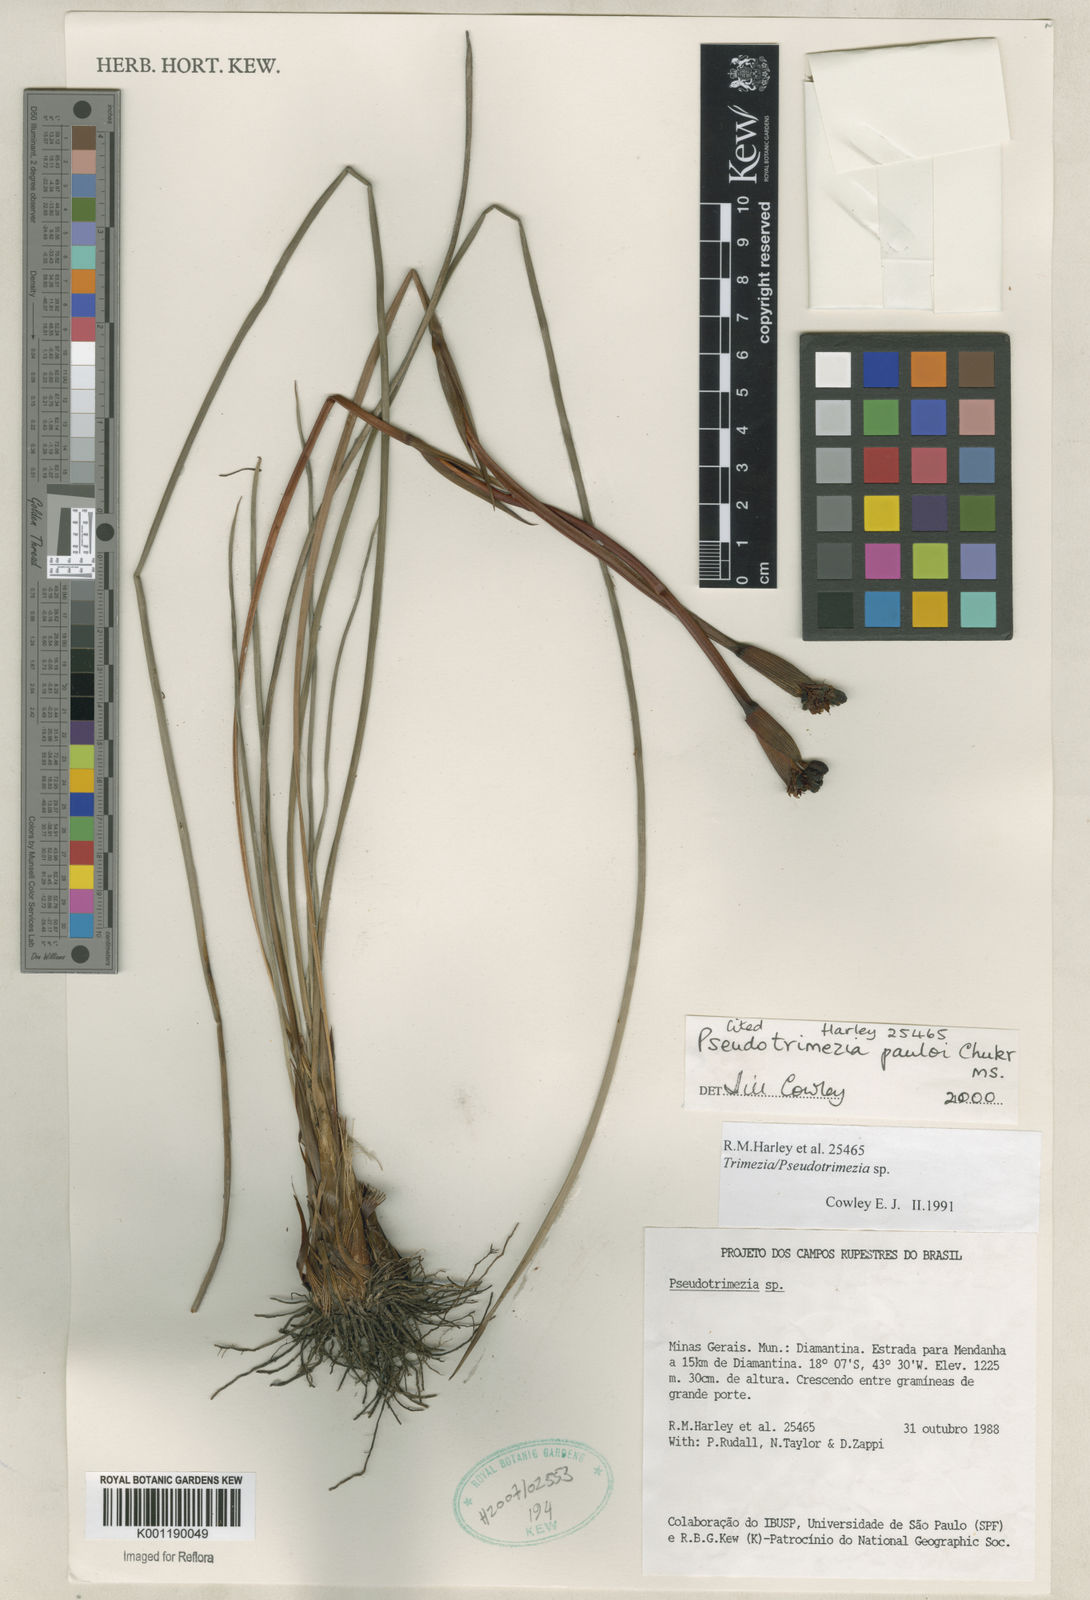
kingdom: Plantae
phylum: Tracheophyta
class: Liliopsida
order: Asparagales
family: Iridaceae
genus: Trimezia
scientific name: Trimezia
